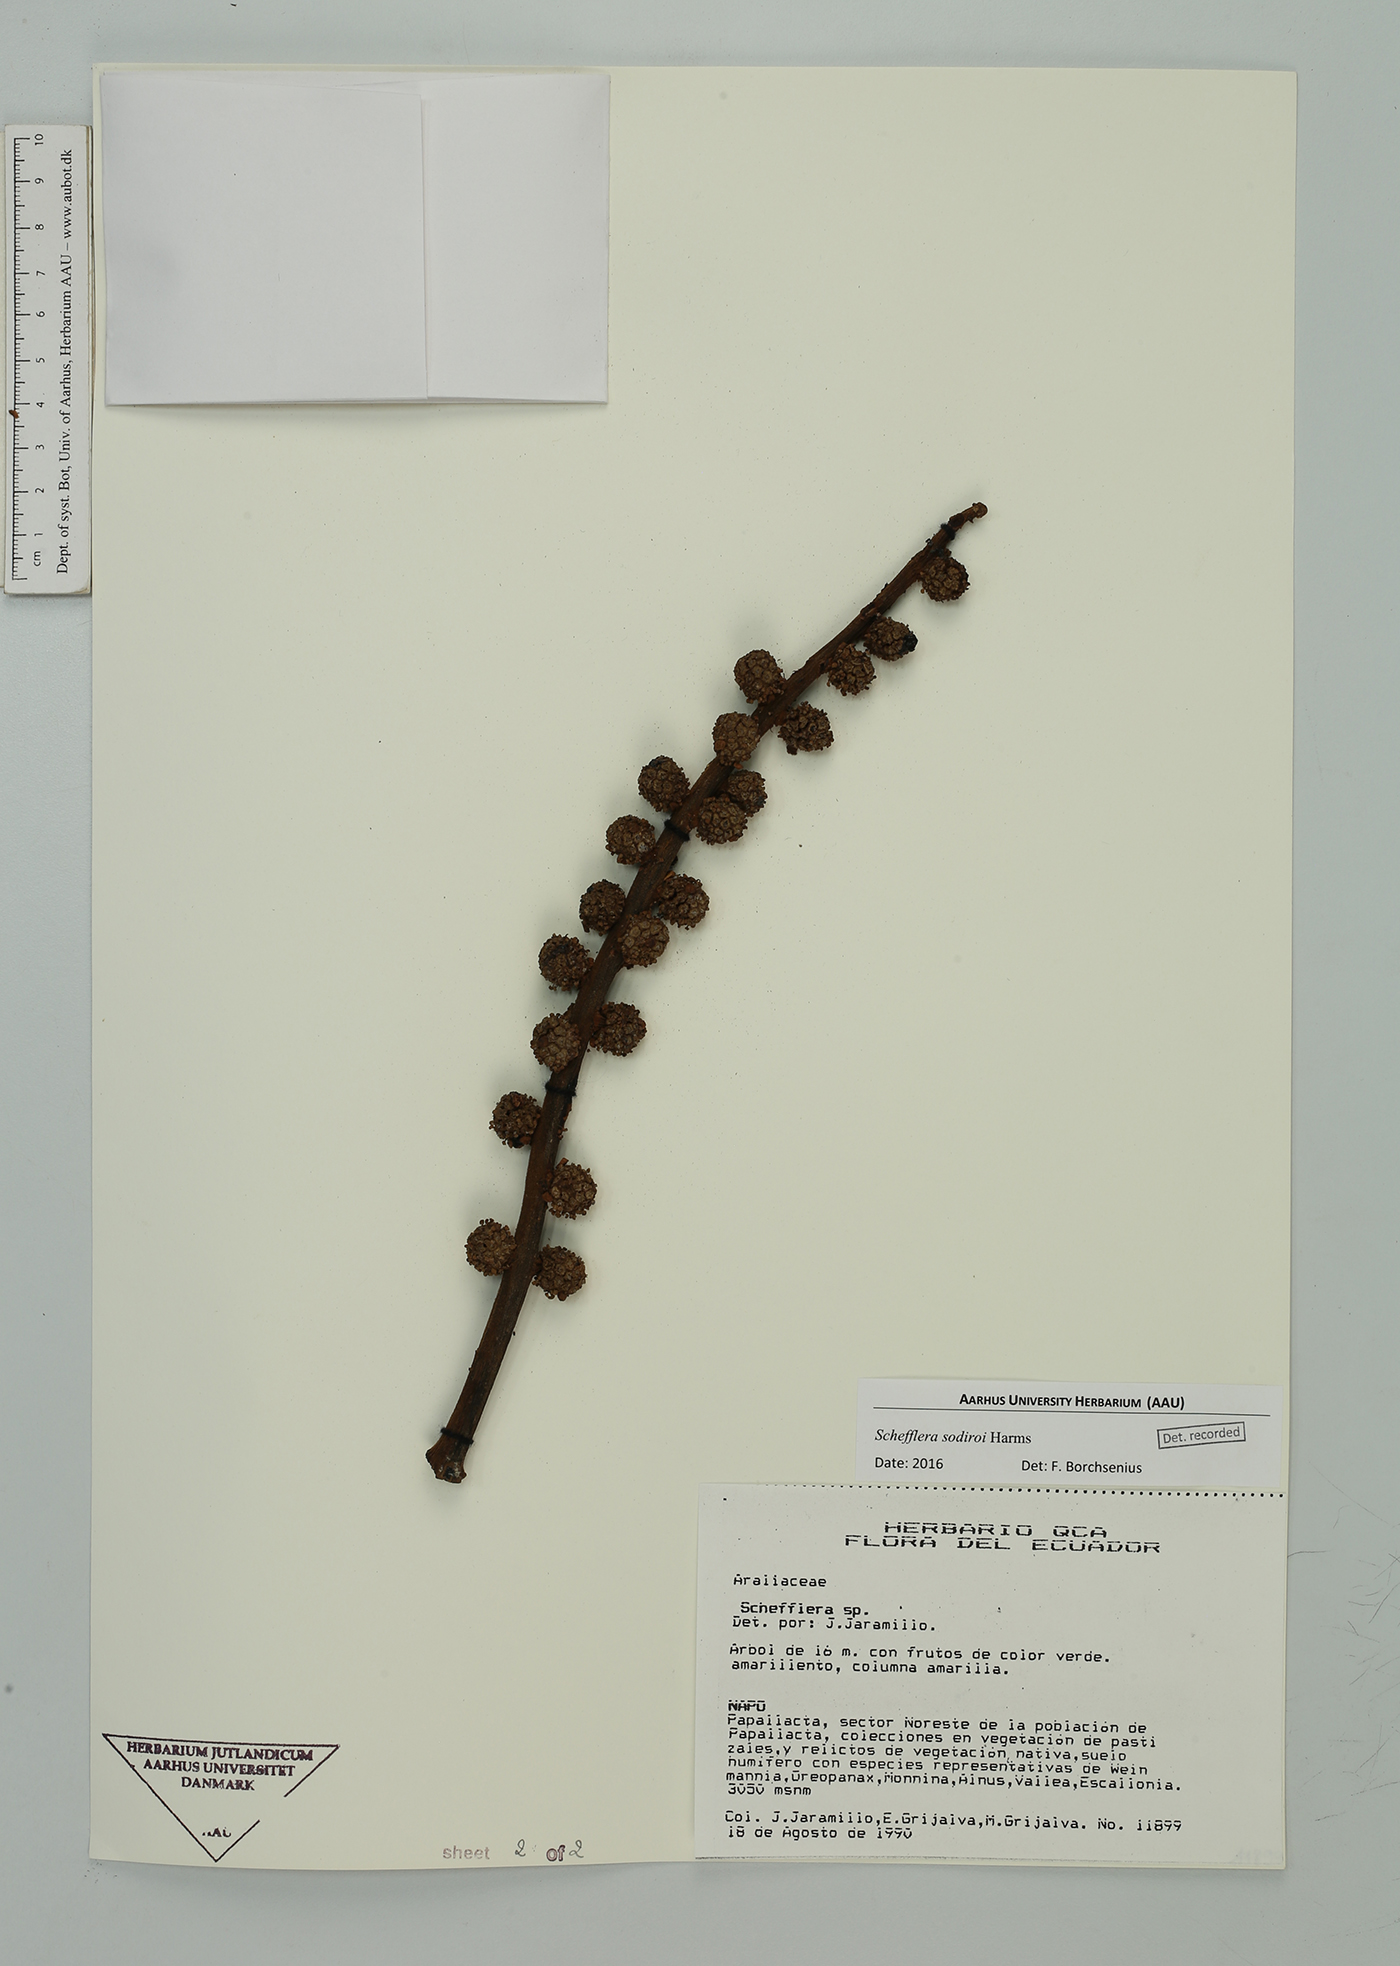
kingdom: Plantae
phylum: Tracheophyta
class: Magnoliopsida
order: Apiales
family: Araliaceae
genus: Sciodaphyllum
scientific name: Sciodaphyllum sodiroi
